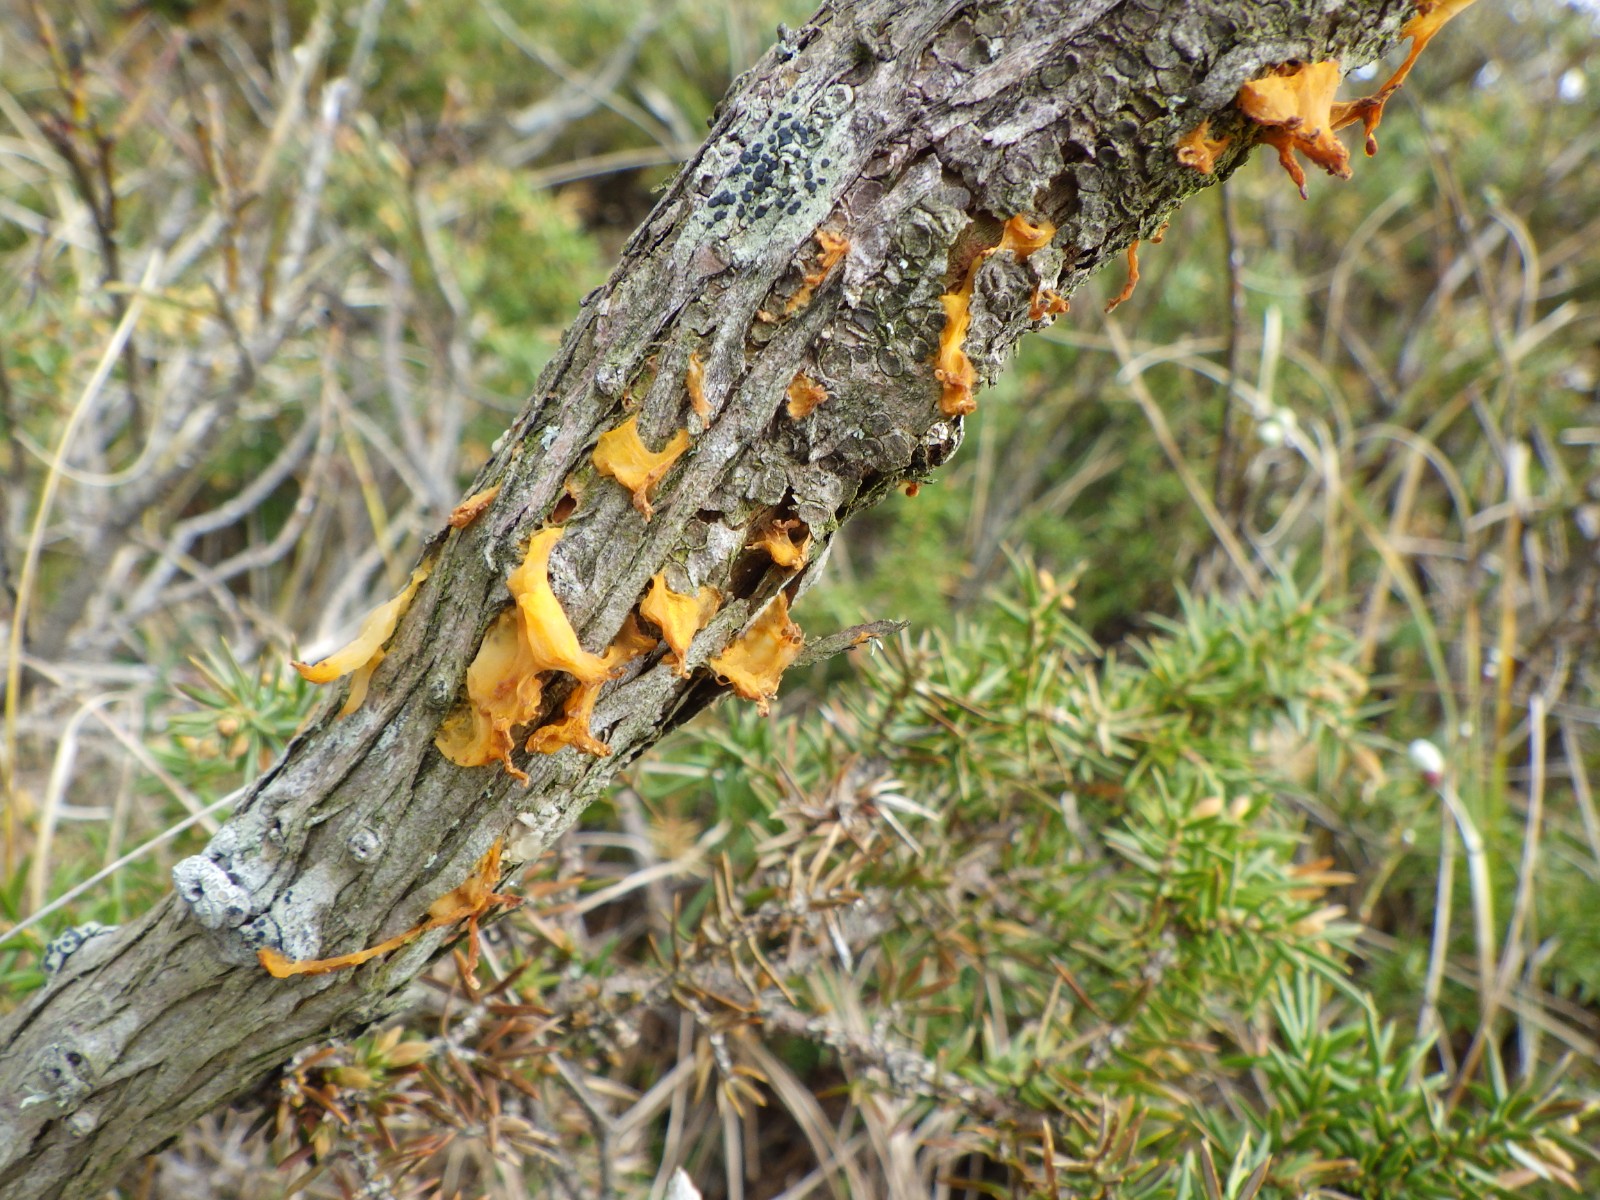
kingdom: Fungi
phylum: Basidiomycota
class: Pucciniomycetes
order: Pucciniales
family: Gymnosporangiaceae
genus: Gymnosporangium
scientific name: Gymnosporangium clavariiforme
